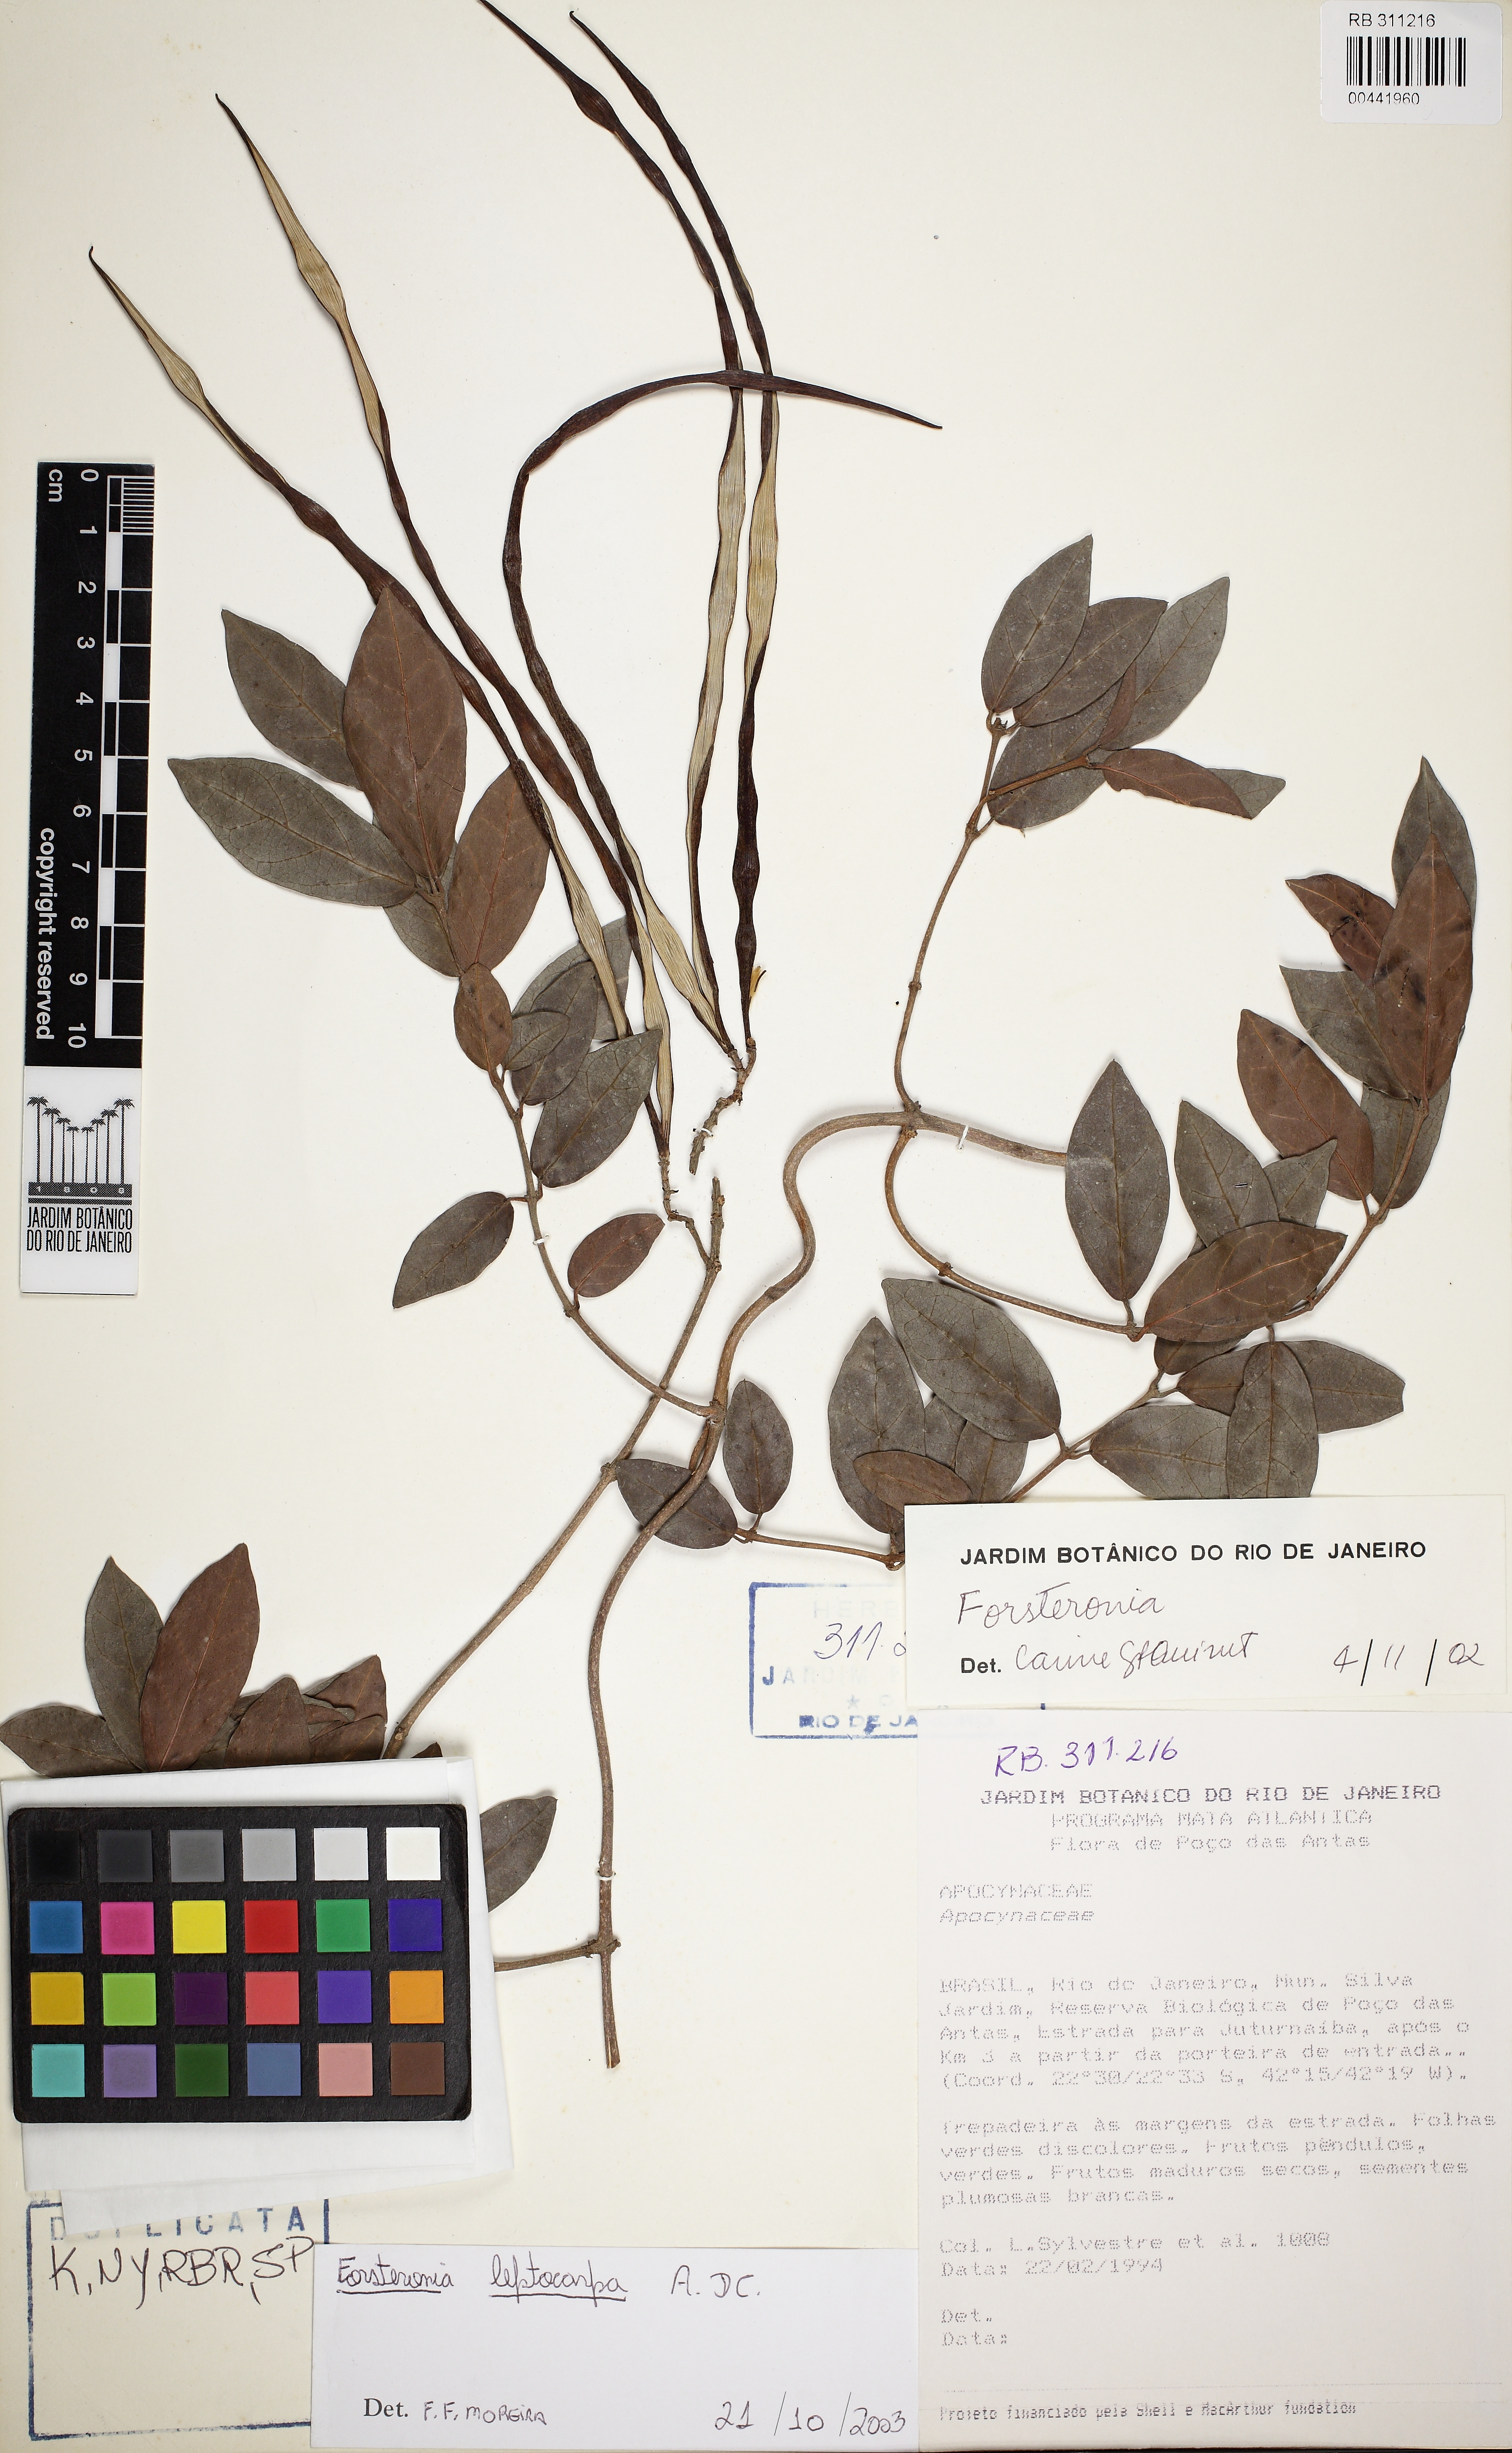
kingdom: Plantae
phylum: Tracheophyta
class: Magnoliopsida
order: Gentianales
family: Apocynaceae
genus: Forsteronia
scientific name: Forsteronia leptocarpa
